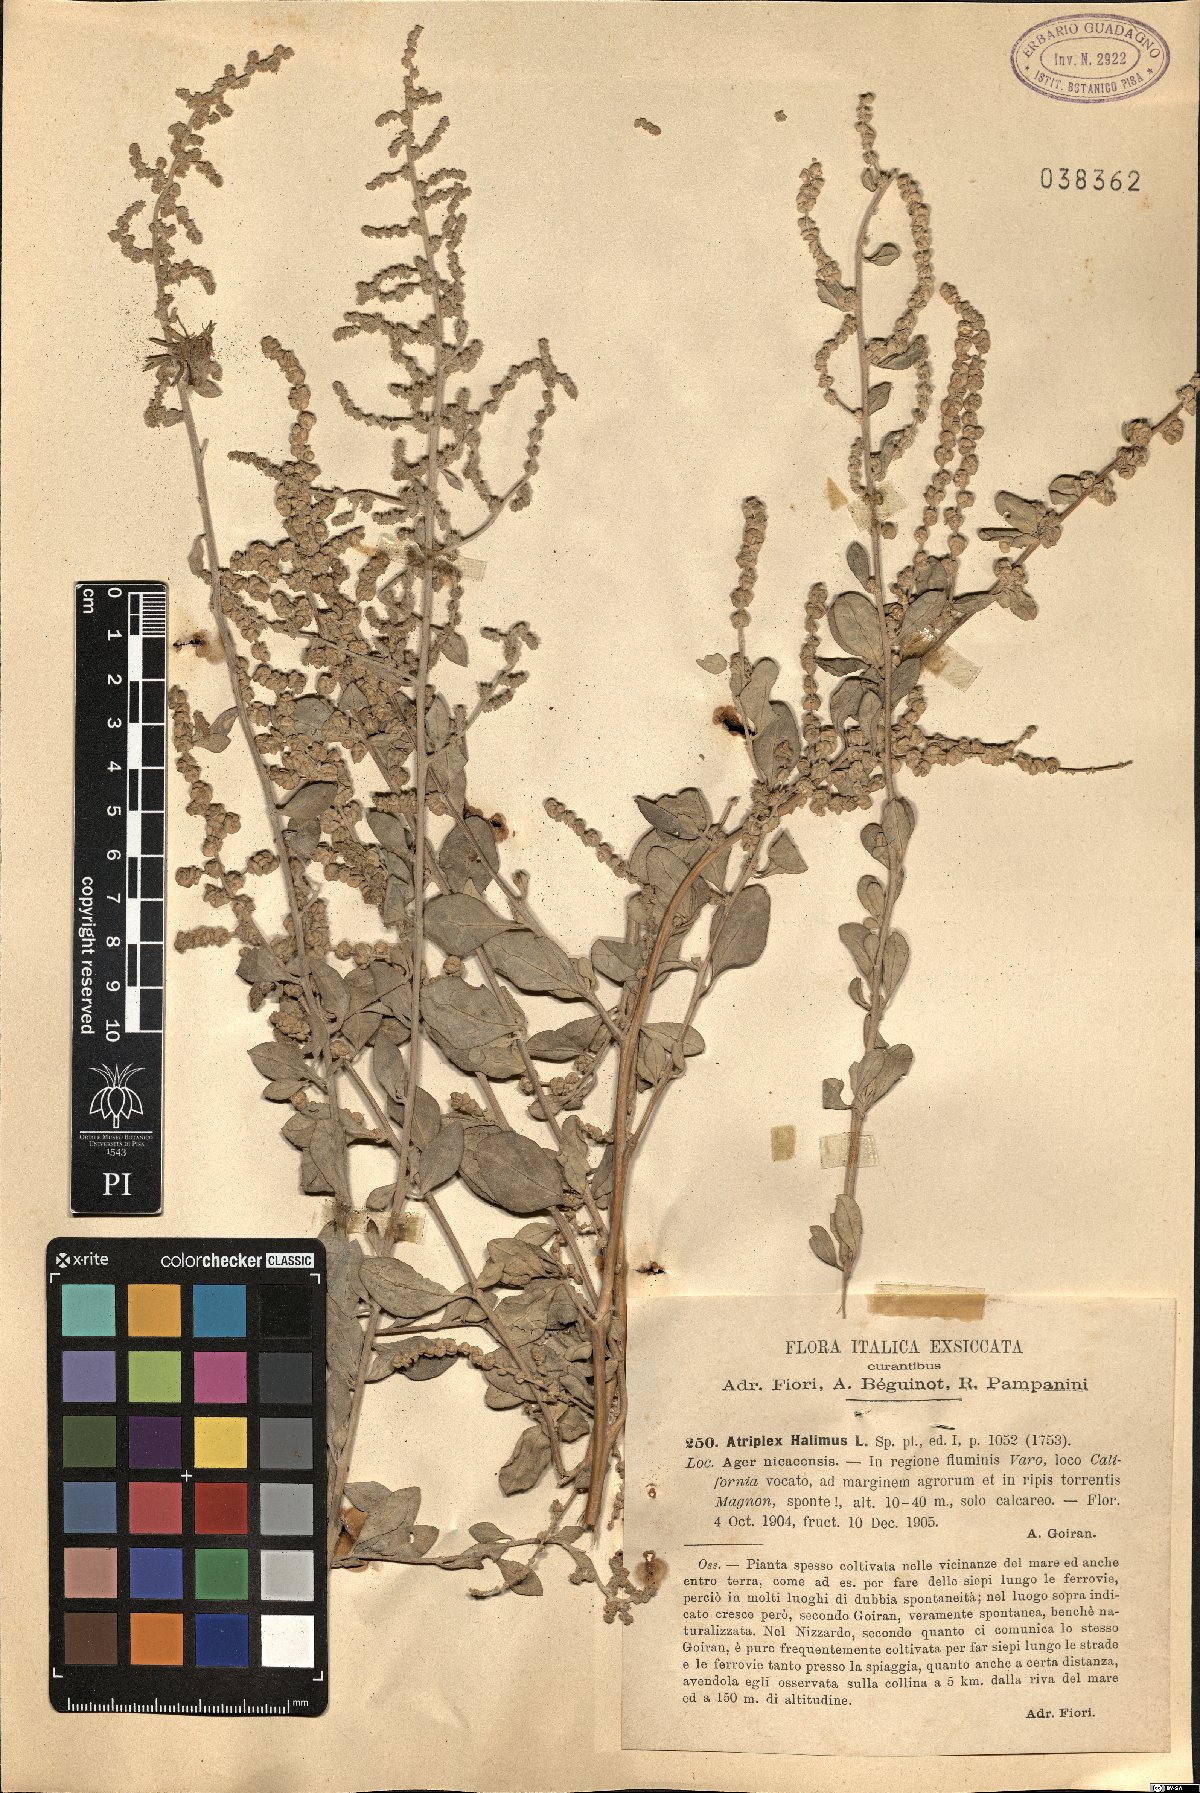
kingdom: Plantae
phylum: Tracheophyta
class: Magnoliopsida
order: Caryophyllales
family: Amaranthaceae
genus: Atriplex
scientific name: Atriplex halimus
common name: Shrubby orache
